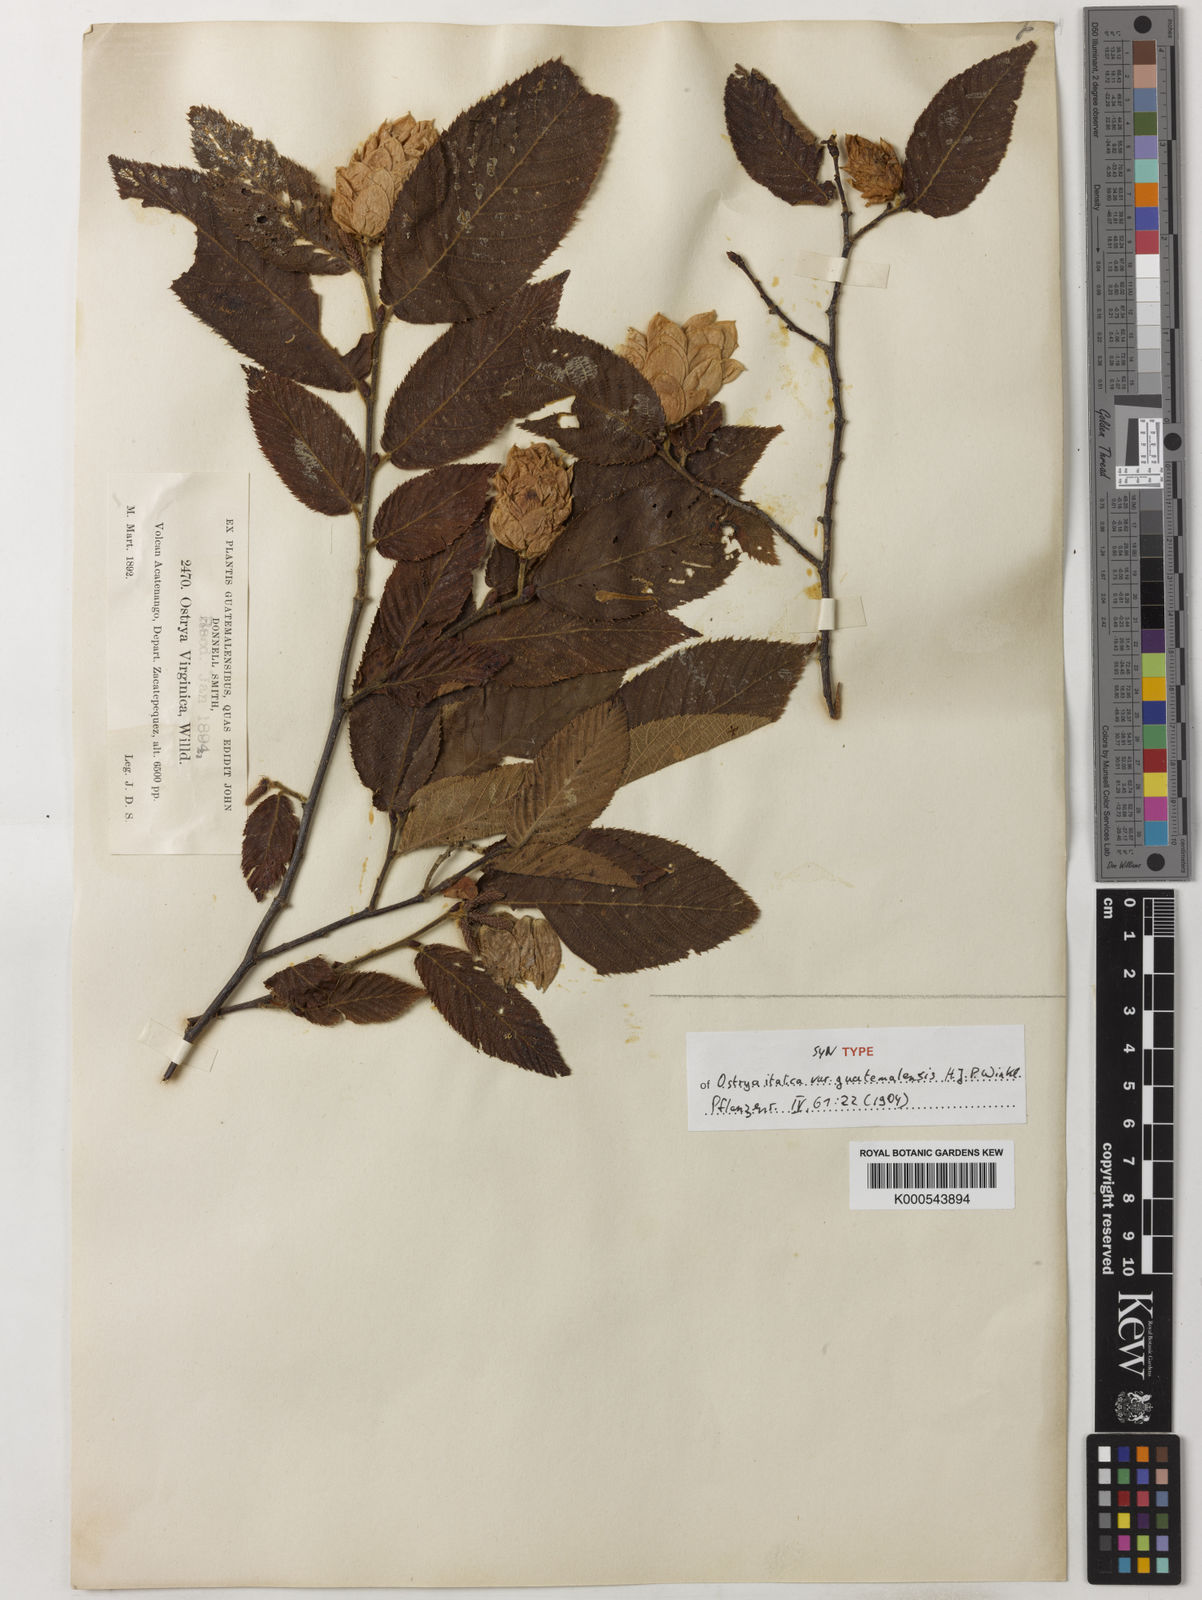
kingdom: Plantae
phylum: Tracheophyta
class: Magnoliopsida
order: Fagales
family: Betulaceae
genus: Ostrya
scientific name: Ostrya virginiana
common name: Ironwood
